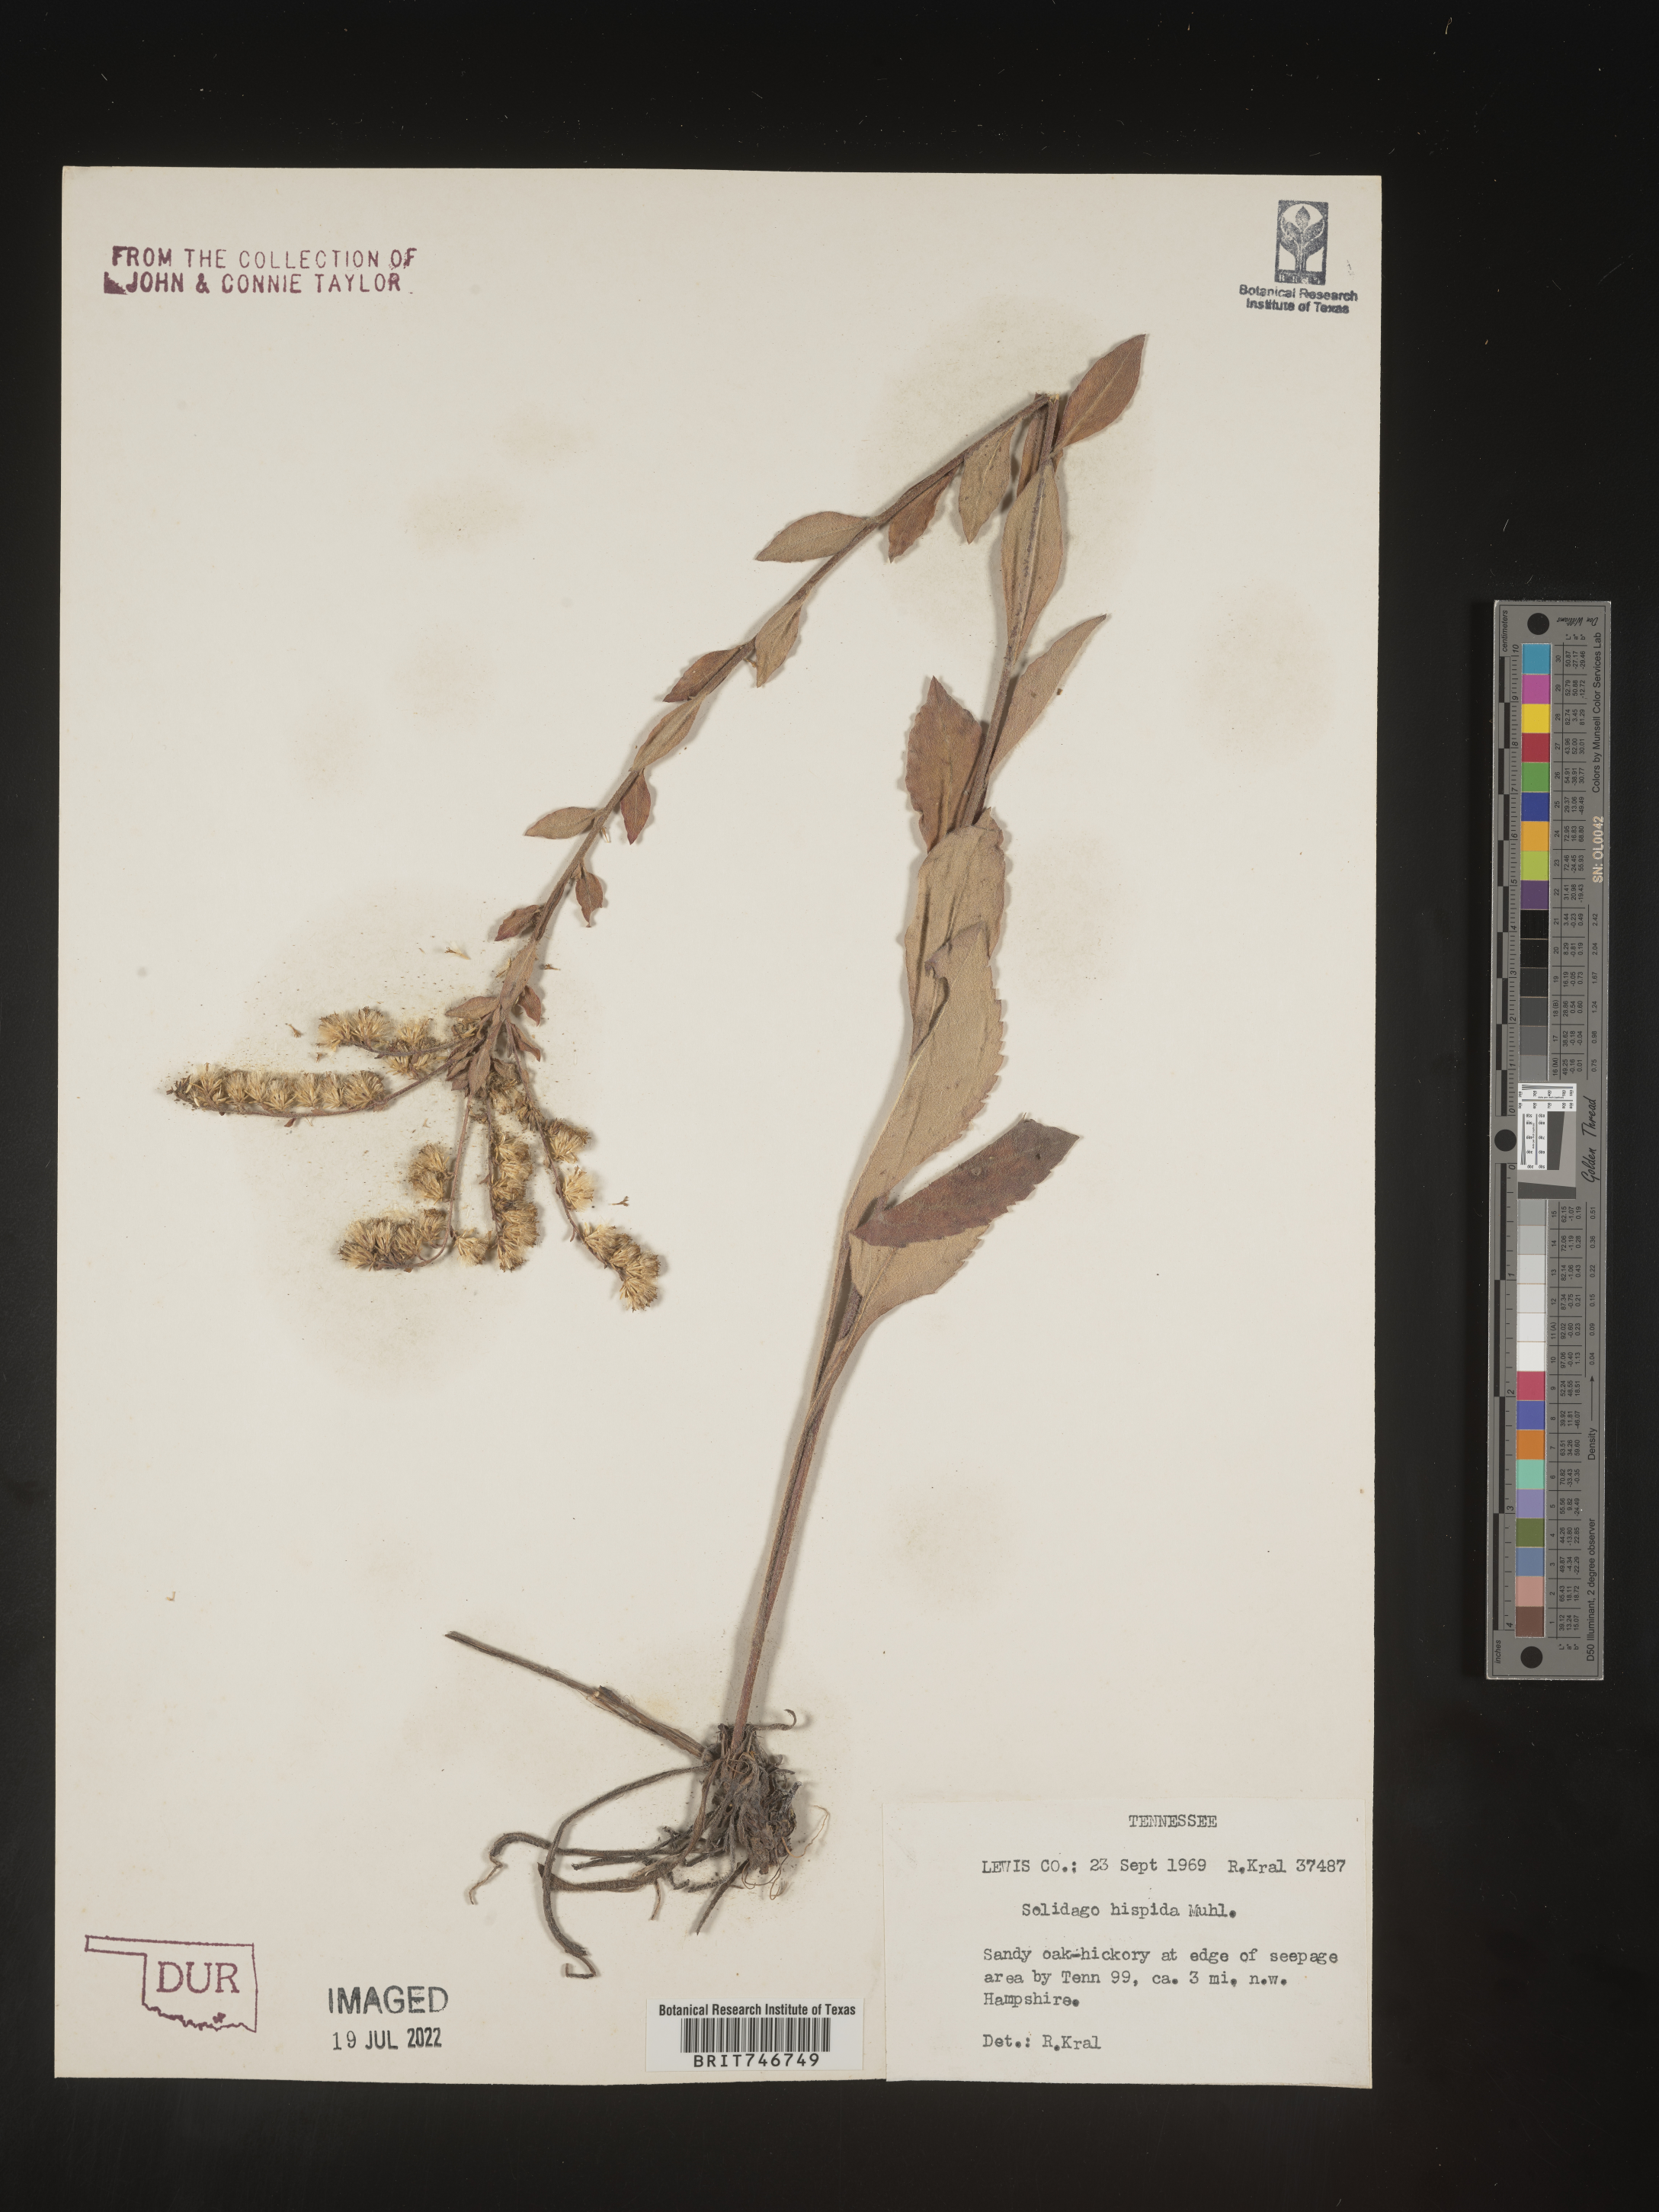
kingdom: Plantae
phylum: Tracheophyta
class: Magnoliopsida
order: Asterales
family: Asteraceae
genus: Solidago
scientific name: Solidago hispida
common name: Hairy goldenrod
